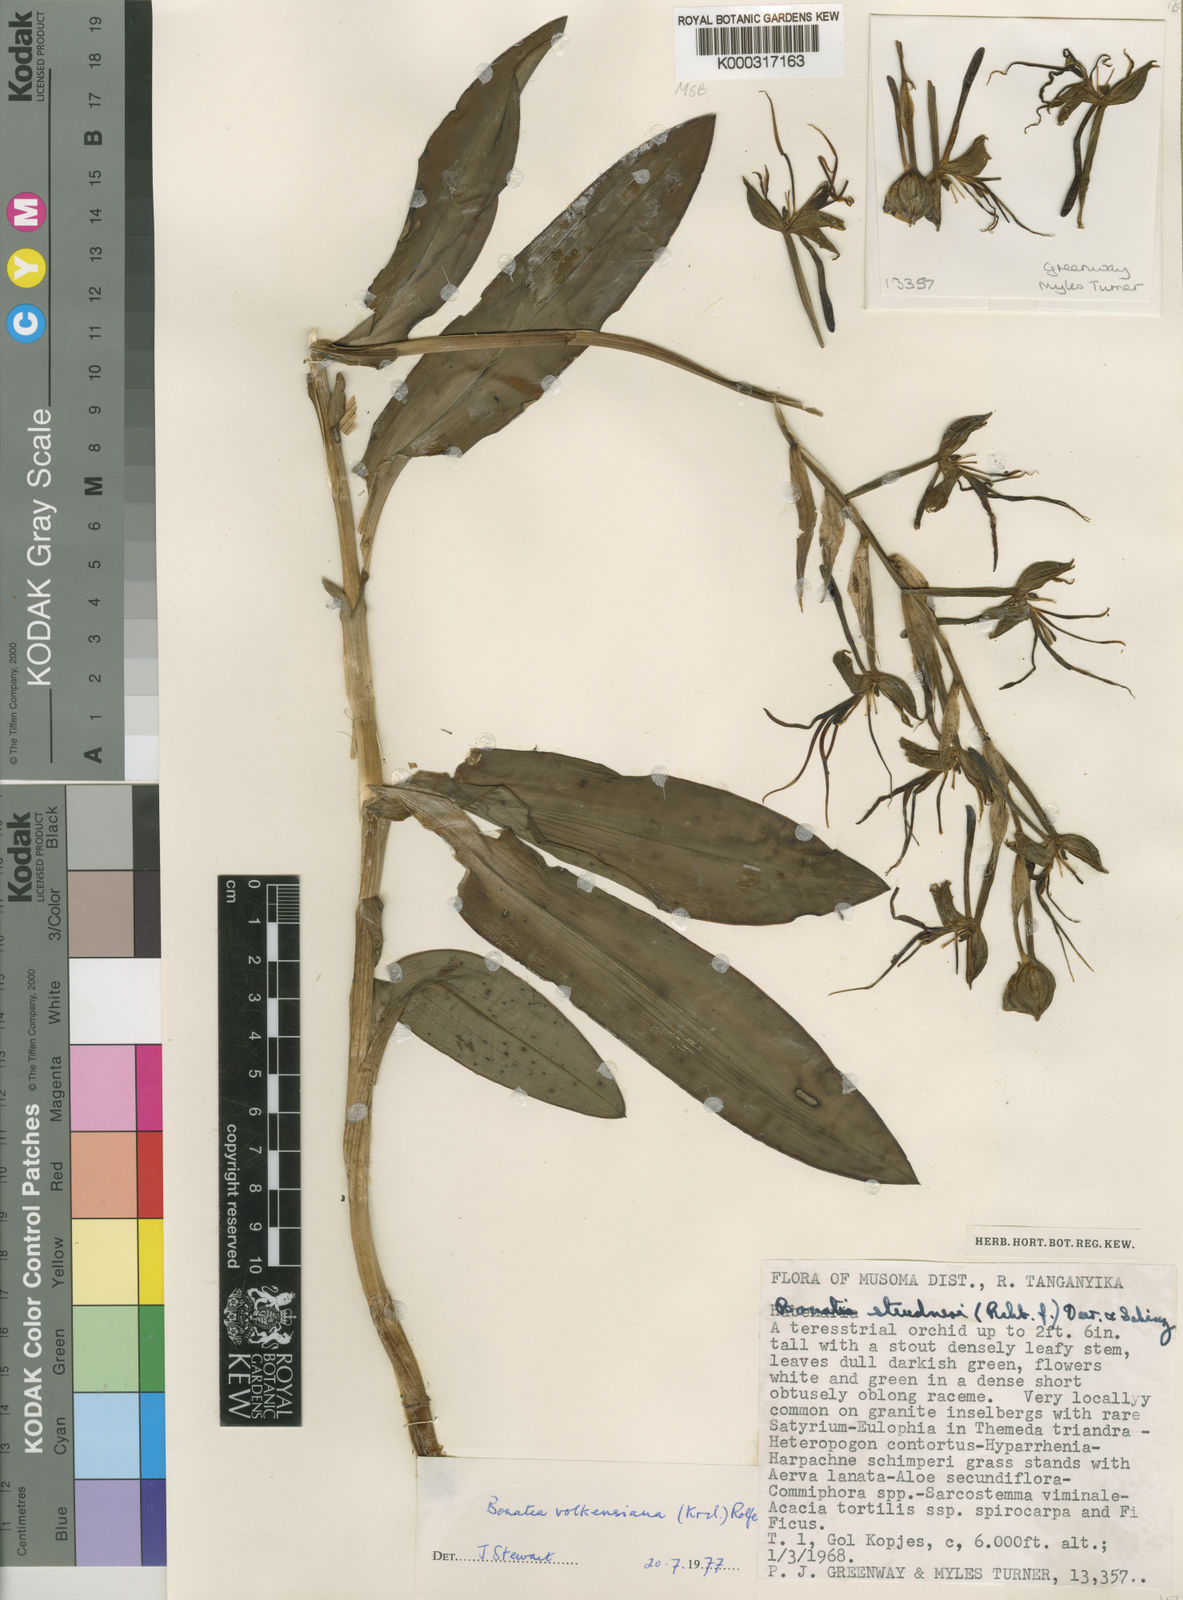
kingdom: Plantae
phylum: Tracheophyta
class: Liliopsida
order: Asparagales
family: Orchidaceae
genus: Bonatea
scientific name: Bonatea volkensiana
